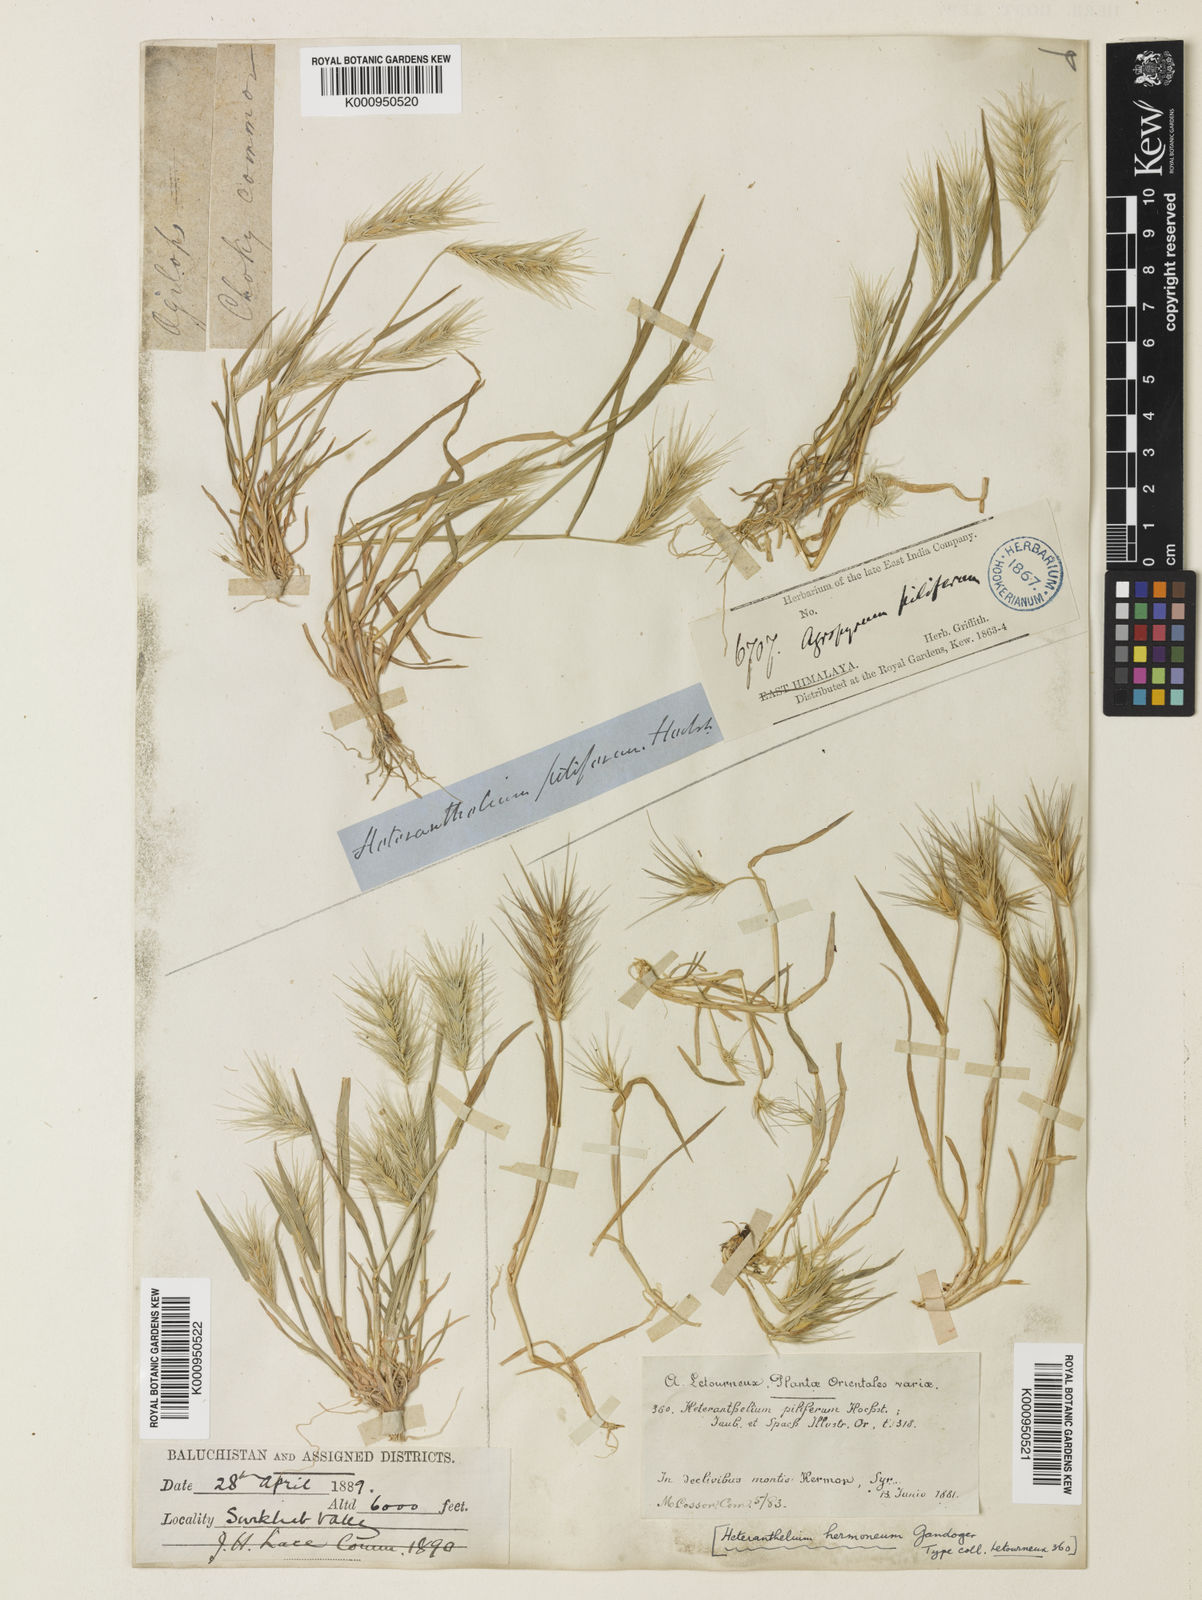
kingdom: Plantae
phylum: Tracheophyta
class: Liliopsida
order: Poales
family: Poaceae
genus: Heteranthelium
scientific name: Heteranthelium piliferum
